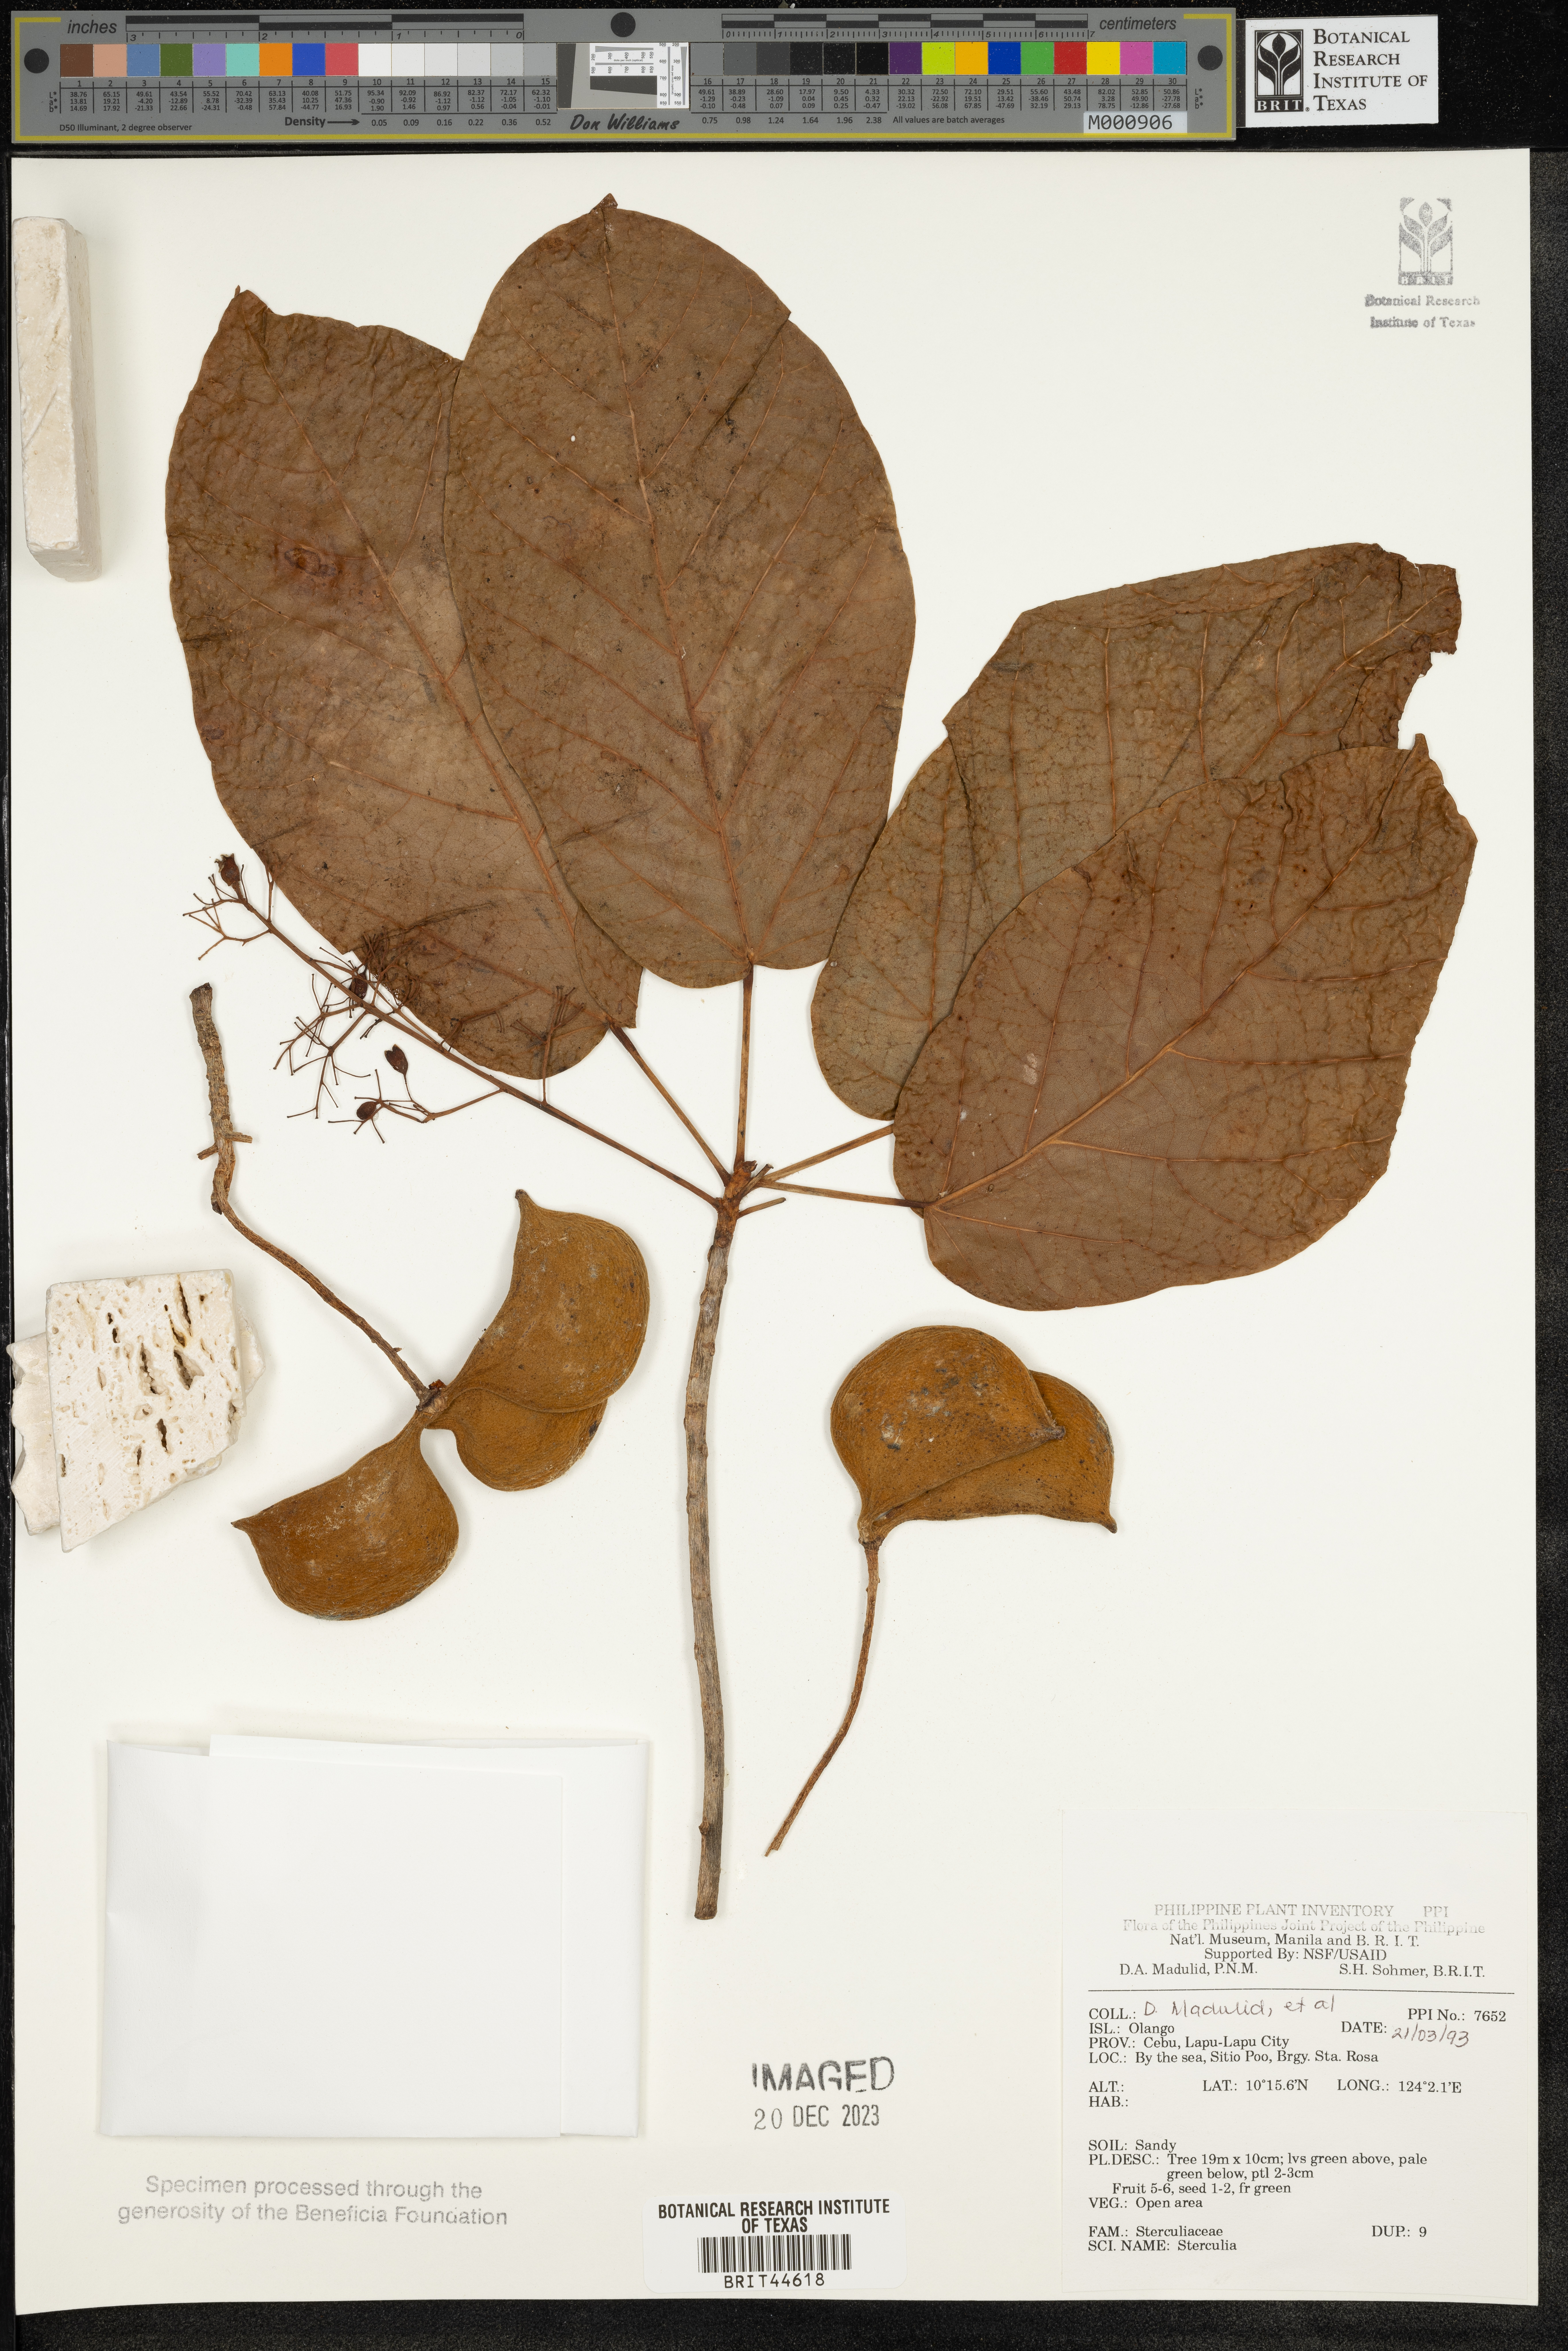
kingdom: Plantae
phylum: Tracheophyta
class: Magnoliopsida
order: Malvales
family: Malvaceae
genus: Sterculia
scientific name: Sterculia
